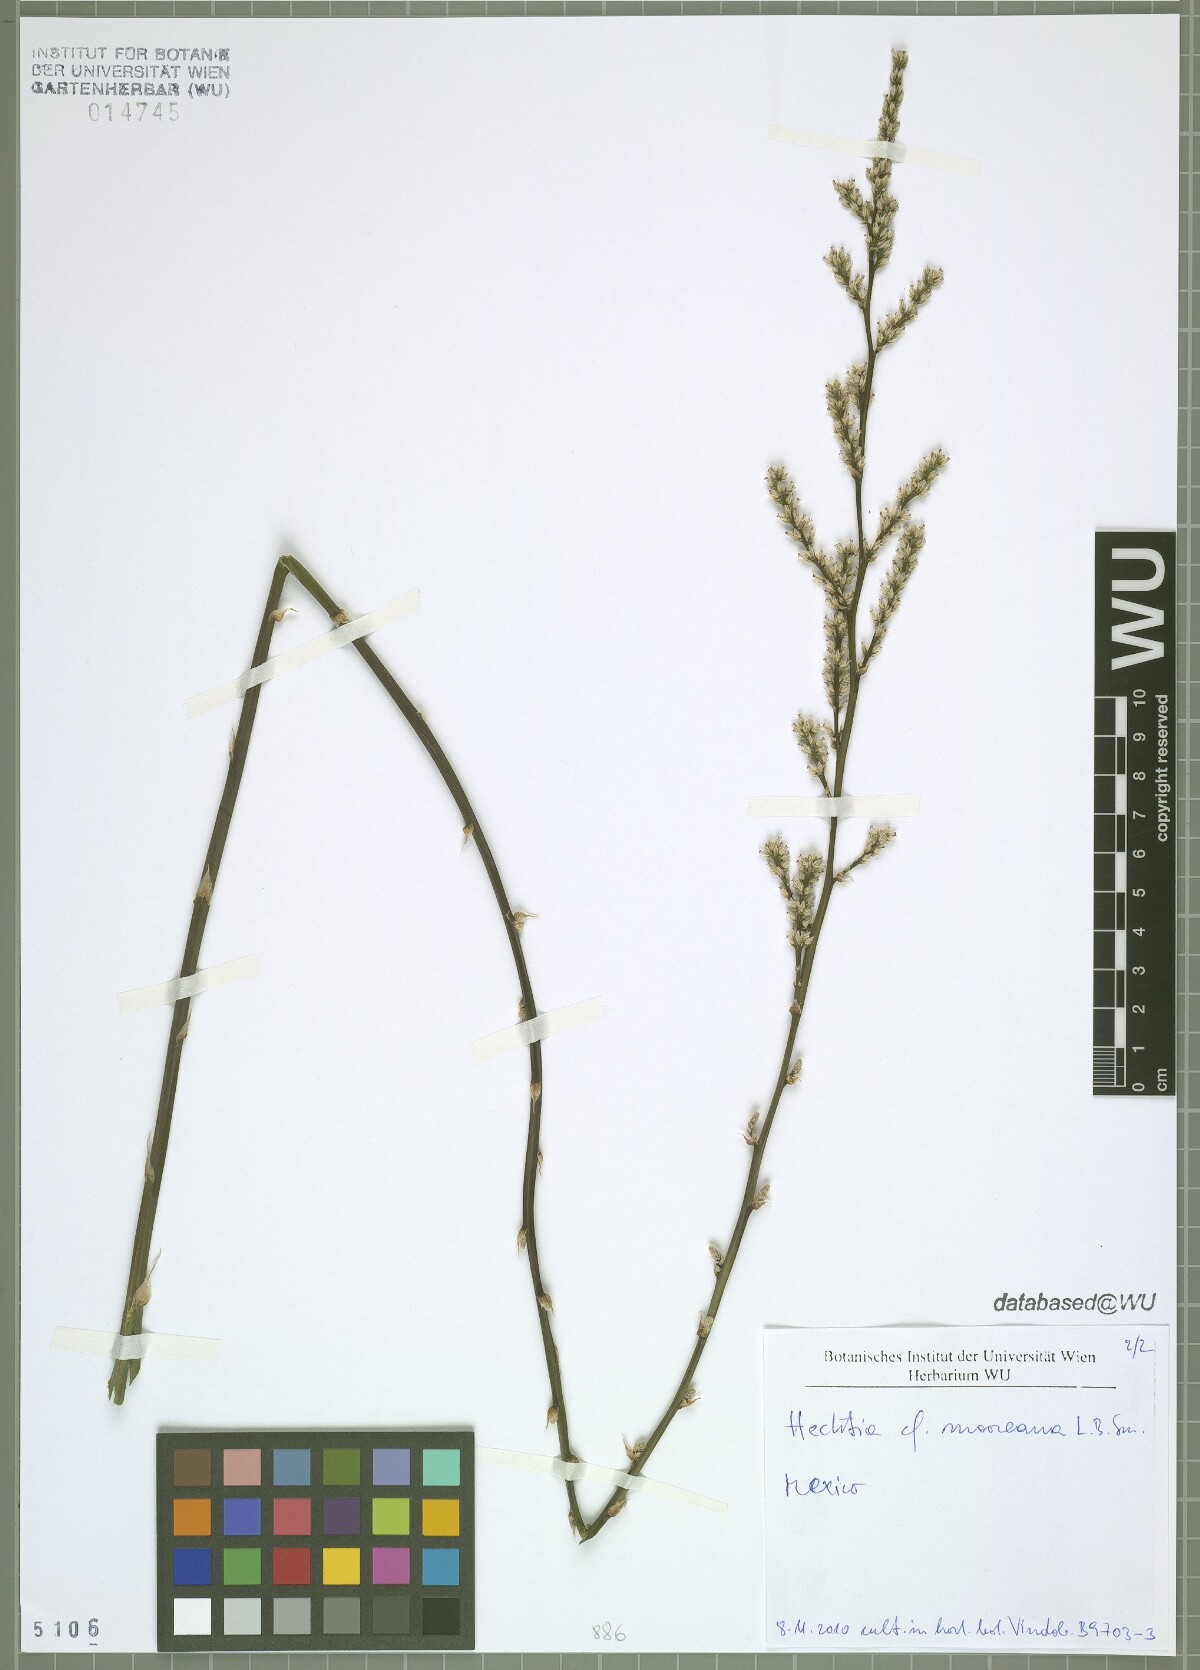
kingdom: Plantae
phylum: Tracheophyta
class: Liliopsida
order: Poales
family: Bromeliaceae
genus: Hechtia
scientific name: Hechtia mooreana
